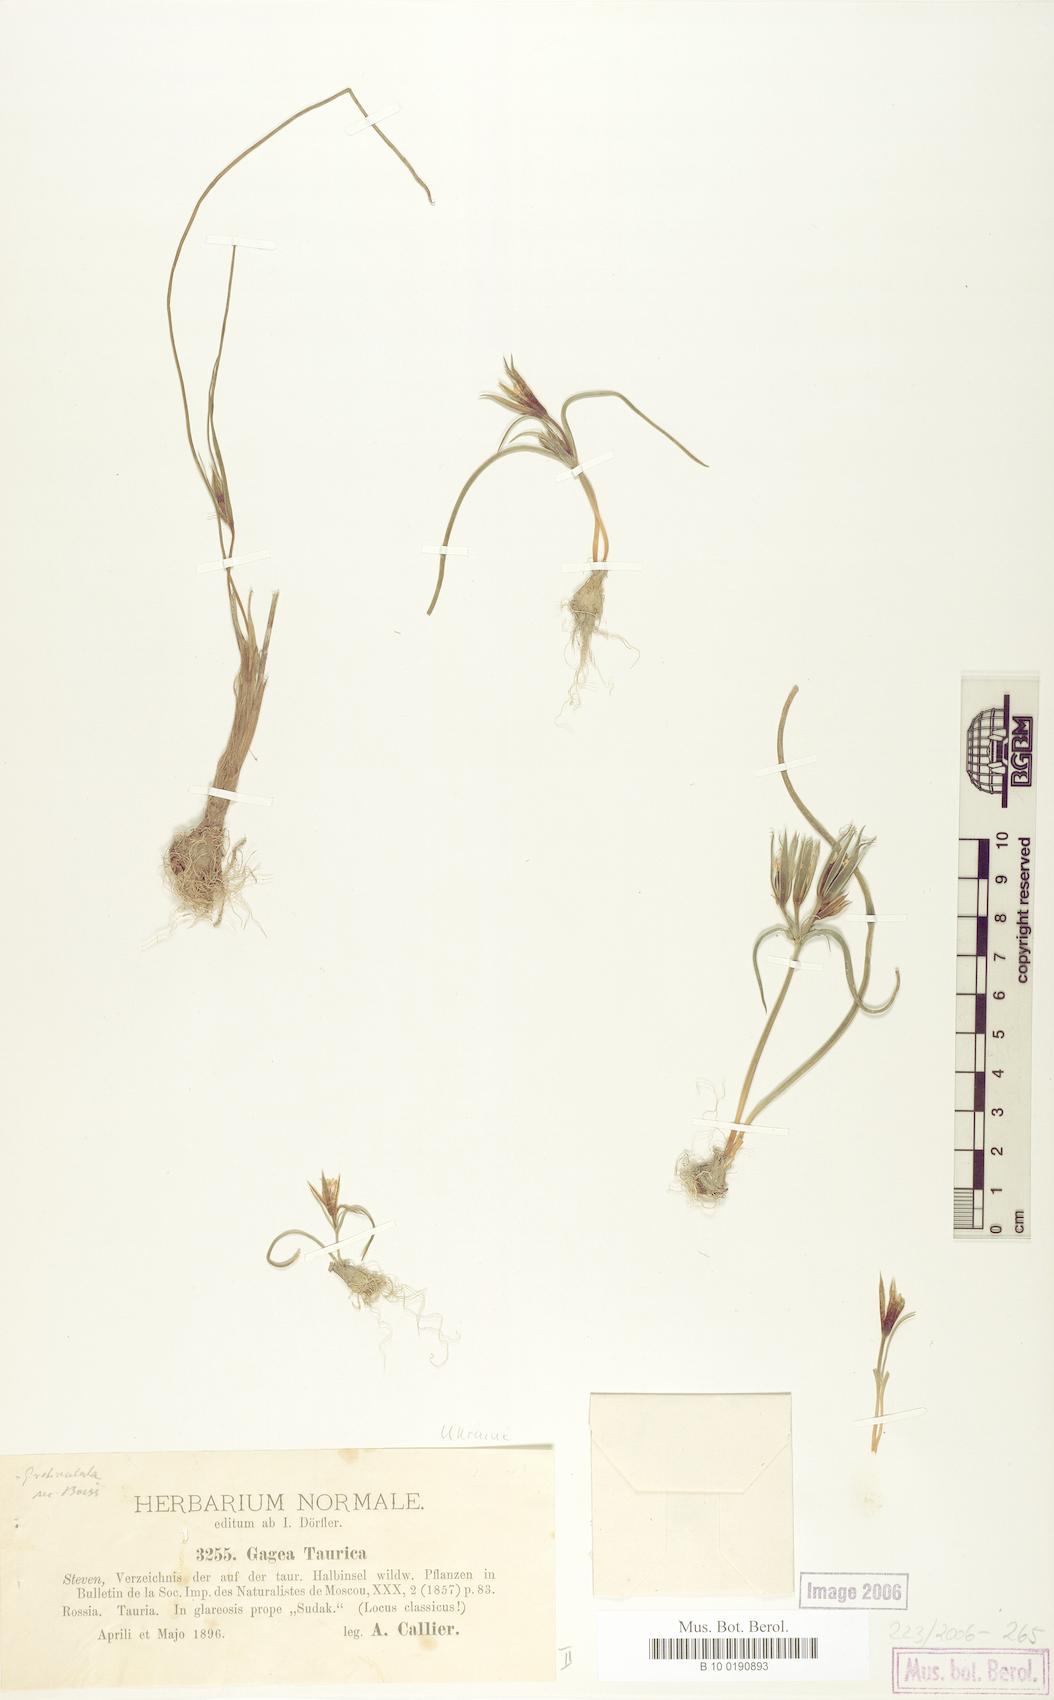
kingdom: Plantae
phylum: Tracheophyta
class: Liliopsida
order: Liliales
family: Liliaceae
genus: Gagea
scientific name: Gagea taurica
